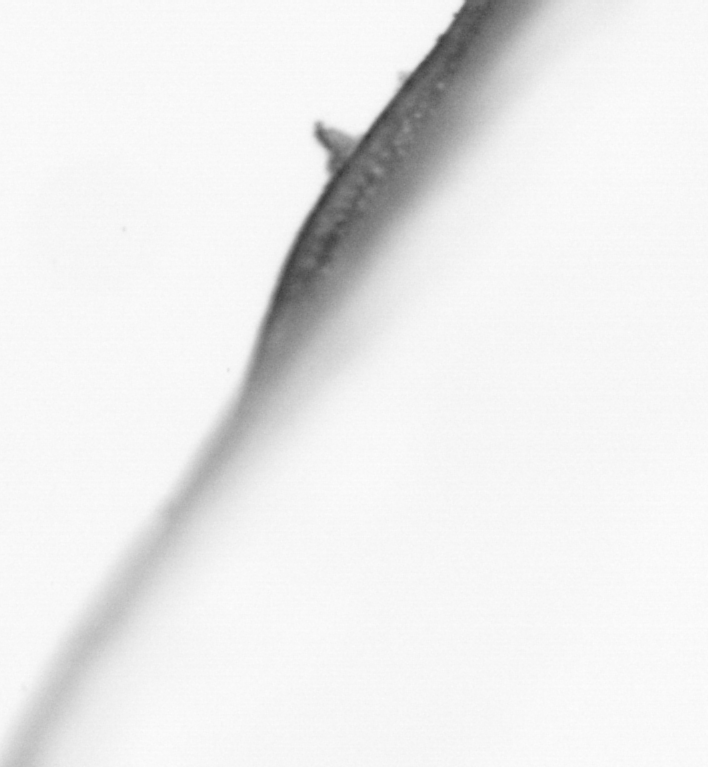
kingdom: Animalia
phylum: Chordata
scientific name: Chordata
